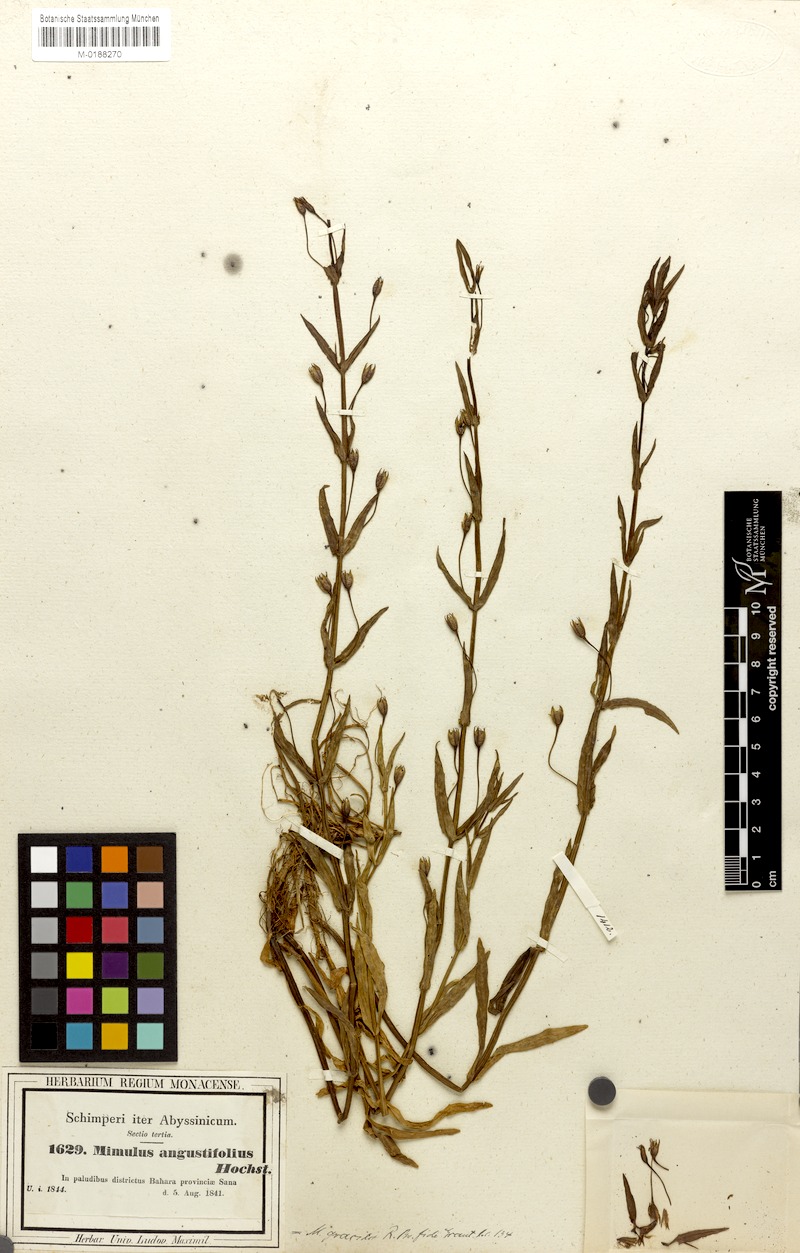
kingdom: Plantae
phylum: Tracheophyta
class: Magnoliopsida
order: Lamiales
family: Phrymaceae
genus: Mimulus
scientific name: Mimulus gracilis
